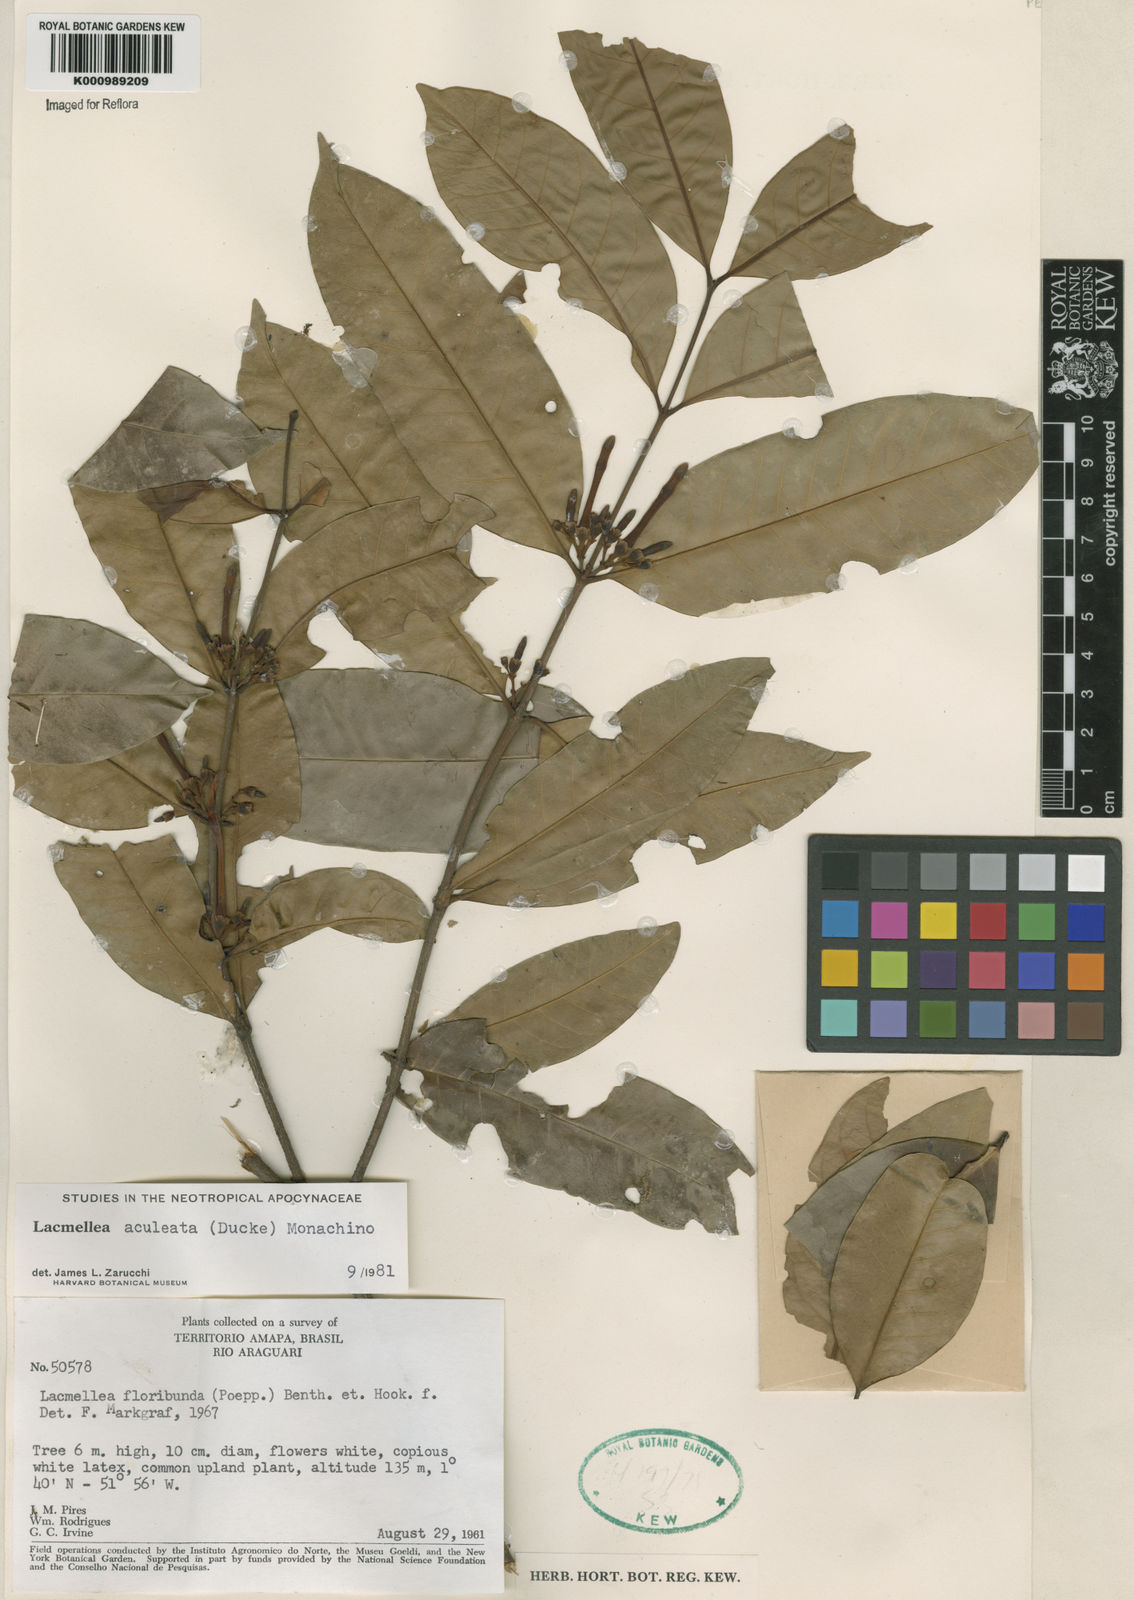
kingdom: Plantae
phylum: Tracheophyta
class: Magnoliopsida
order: Gentianales
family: Apocynaceae
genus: Lacmellea
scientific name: Lacmellea aculeata
